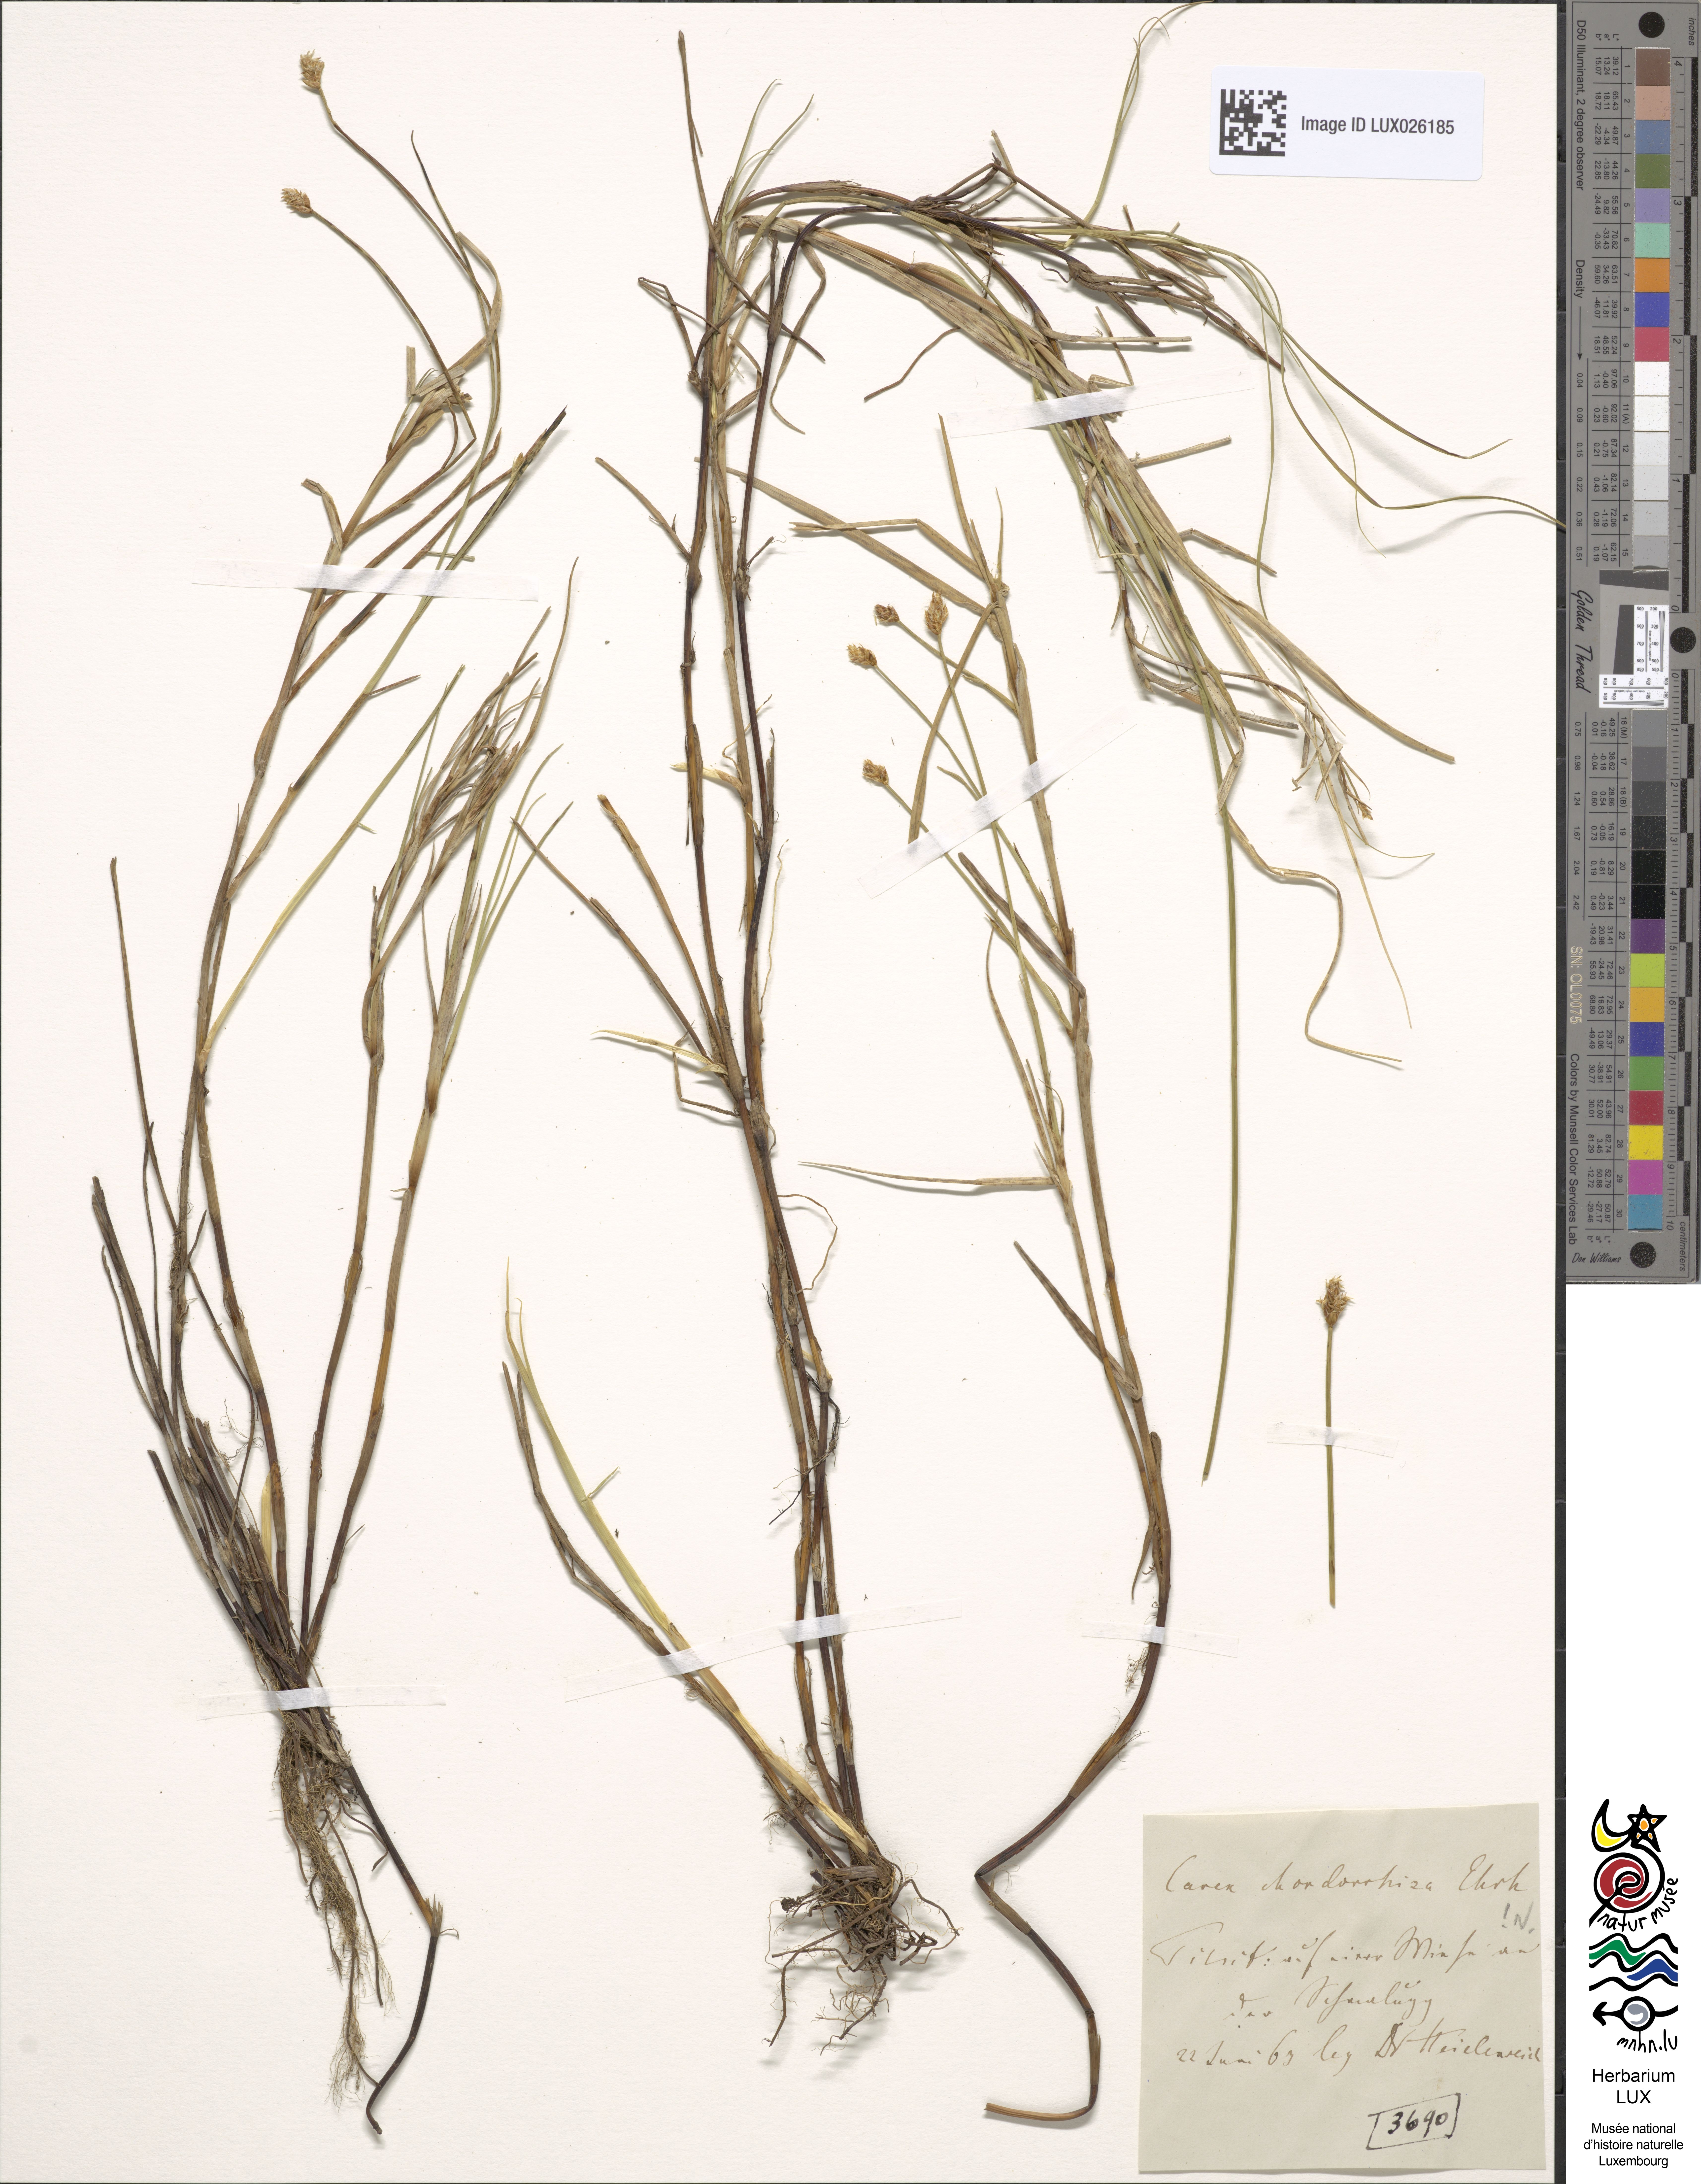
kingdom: Plantae
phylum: Tracheophyta
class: Liliopsida
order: Poales
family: Cyperaceae
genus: Carex
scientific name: Carex chordorrhiza
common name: String sedge
